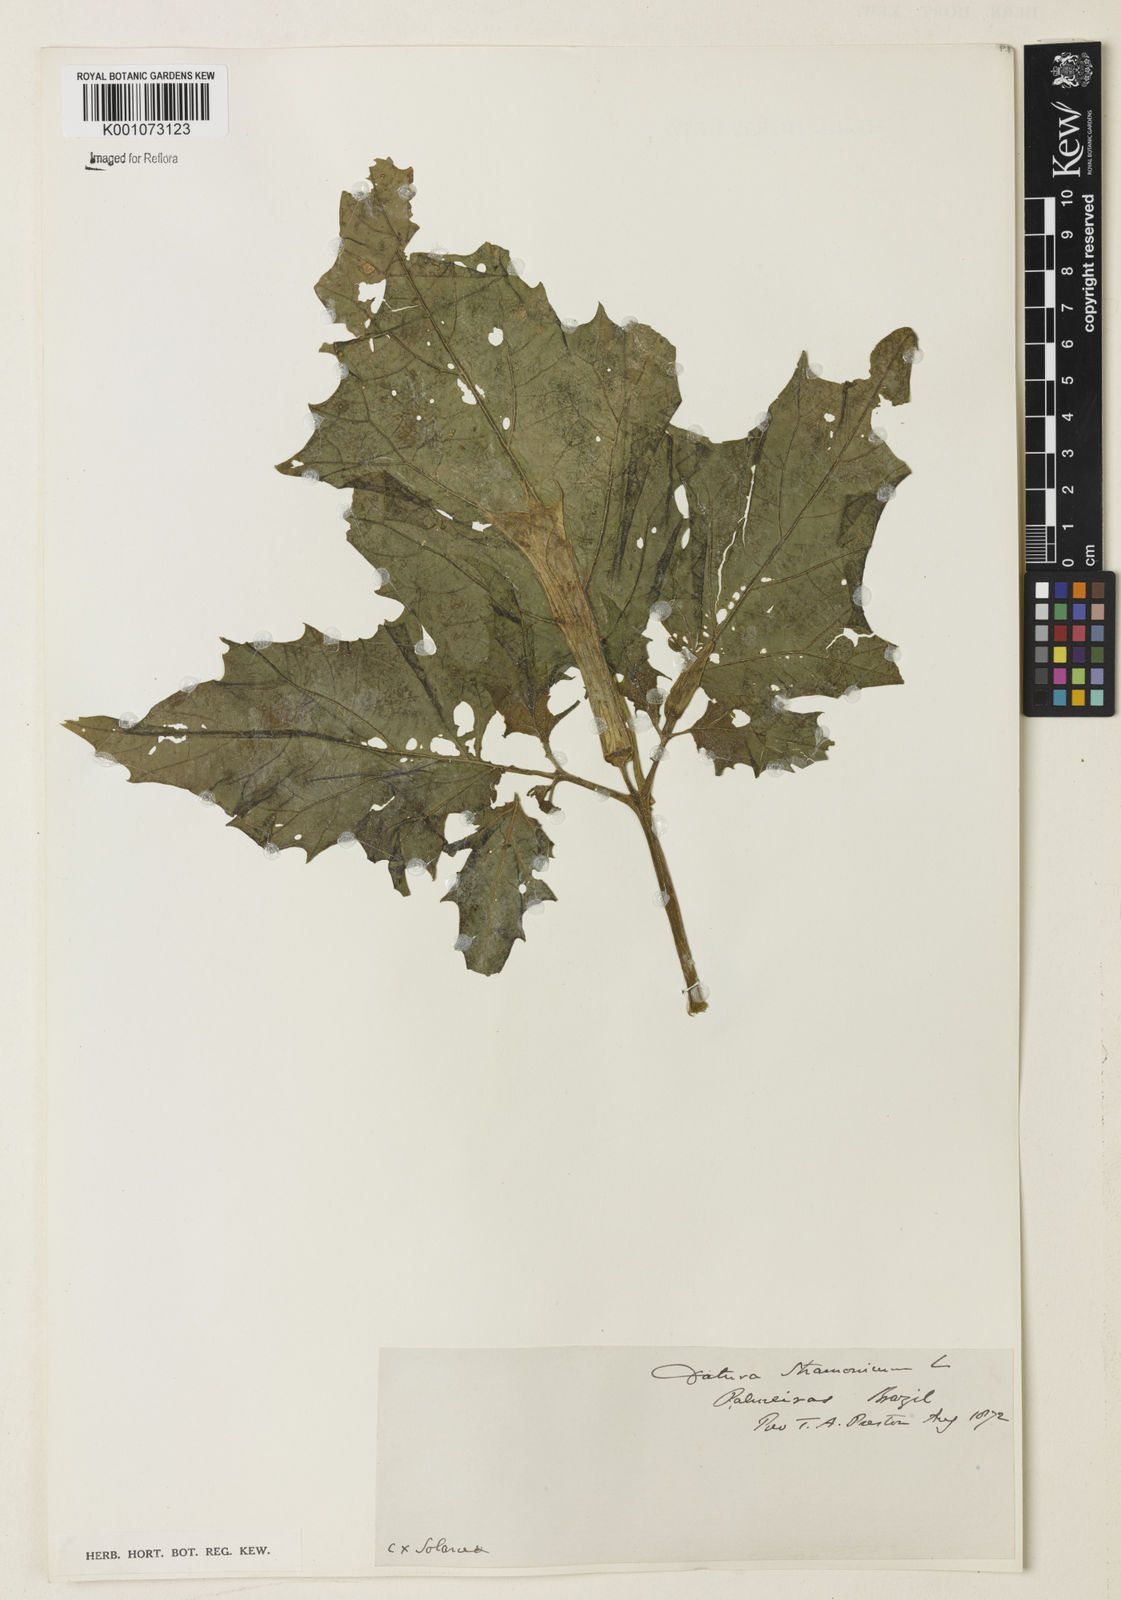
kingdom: Plantae
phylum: Tracheophyta
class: Magnoliopsida
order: Solanales
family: Solanaceae
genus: Datura
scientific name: Datura stramonium
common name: Thorn-apple
